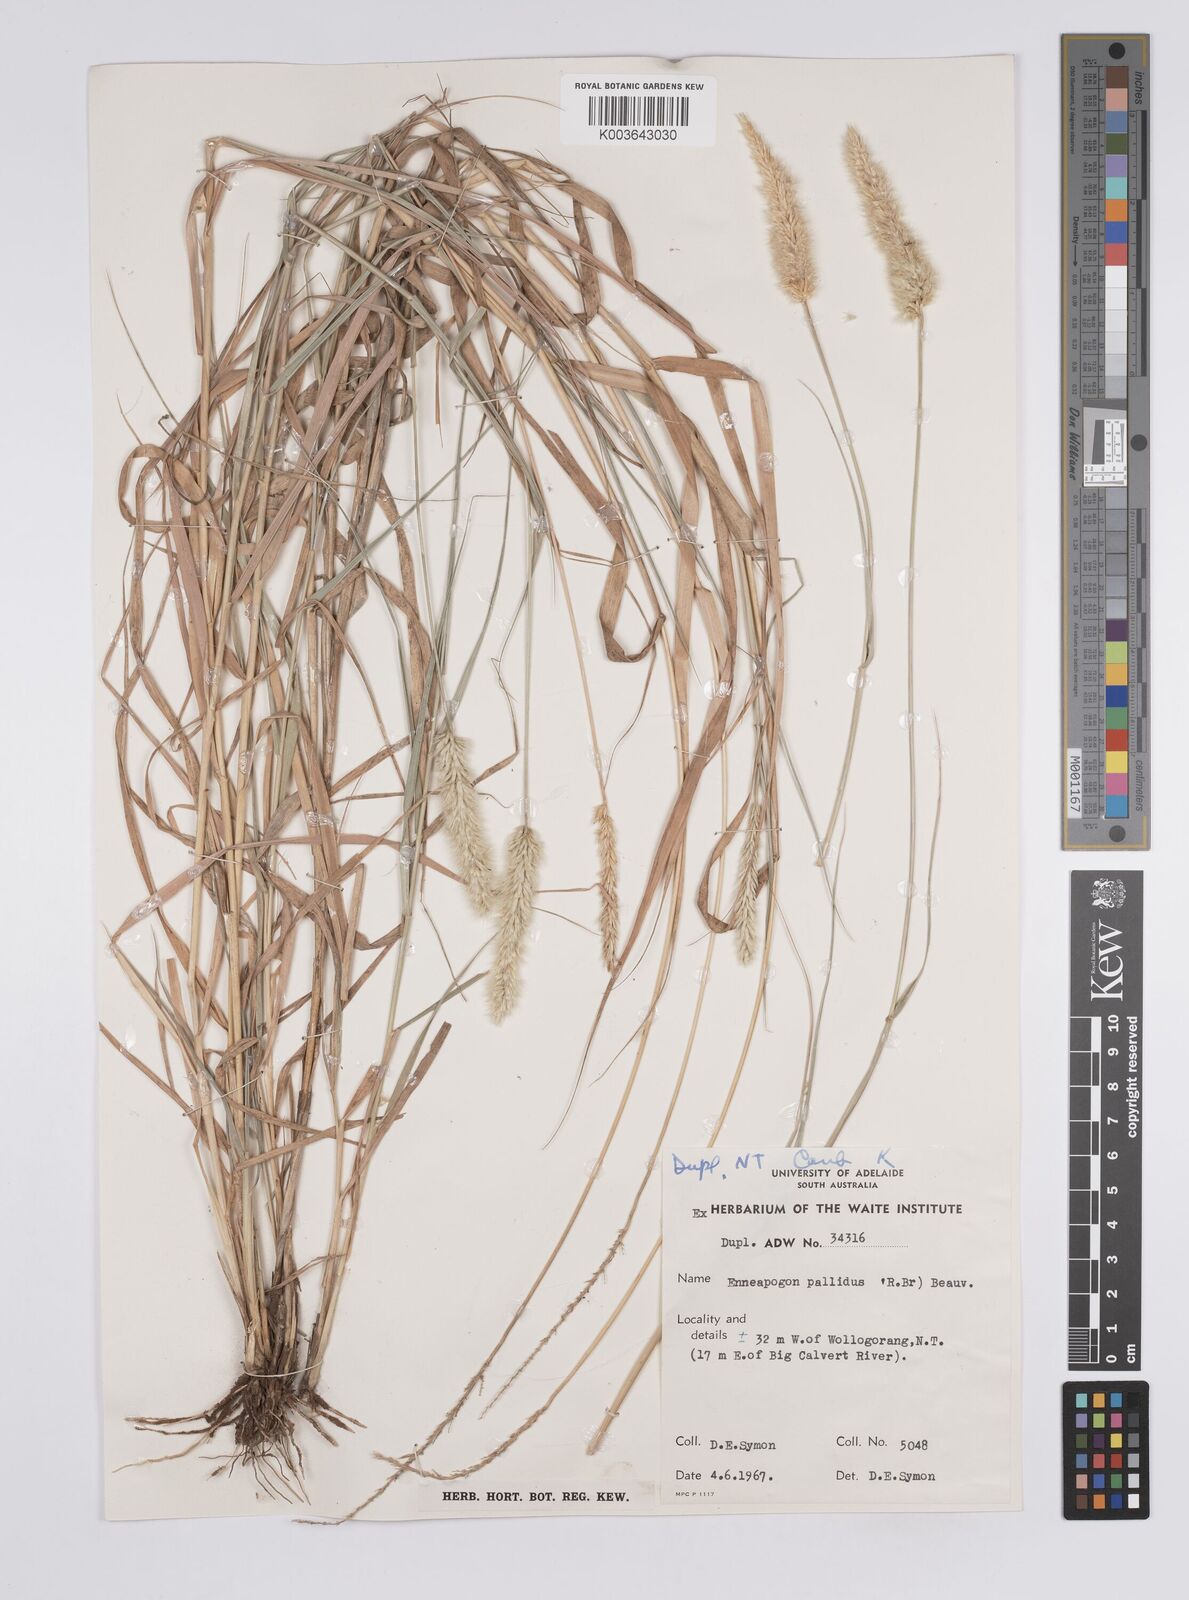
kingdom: Plantae
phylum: Tracheophyta
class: Liliopsida
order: Poales
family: Poaceae
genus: Enneapogon
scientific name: Enneapogon pallidus
